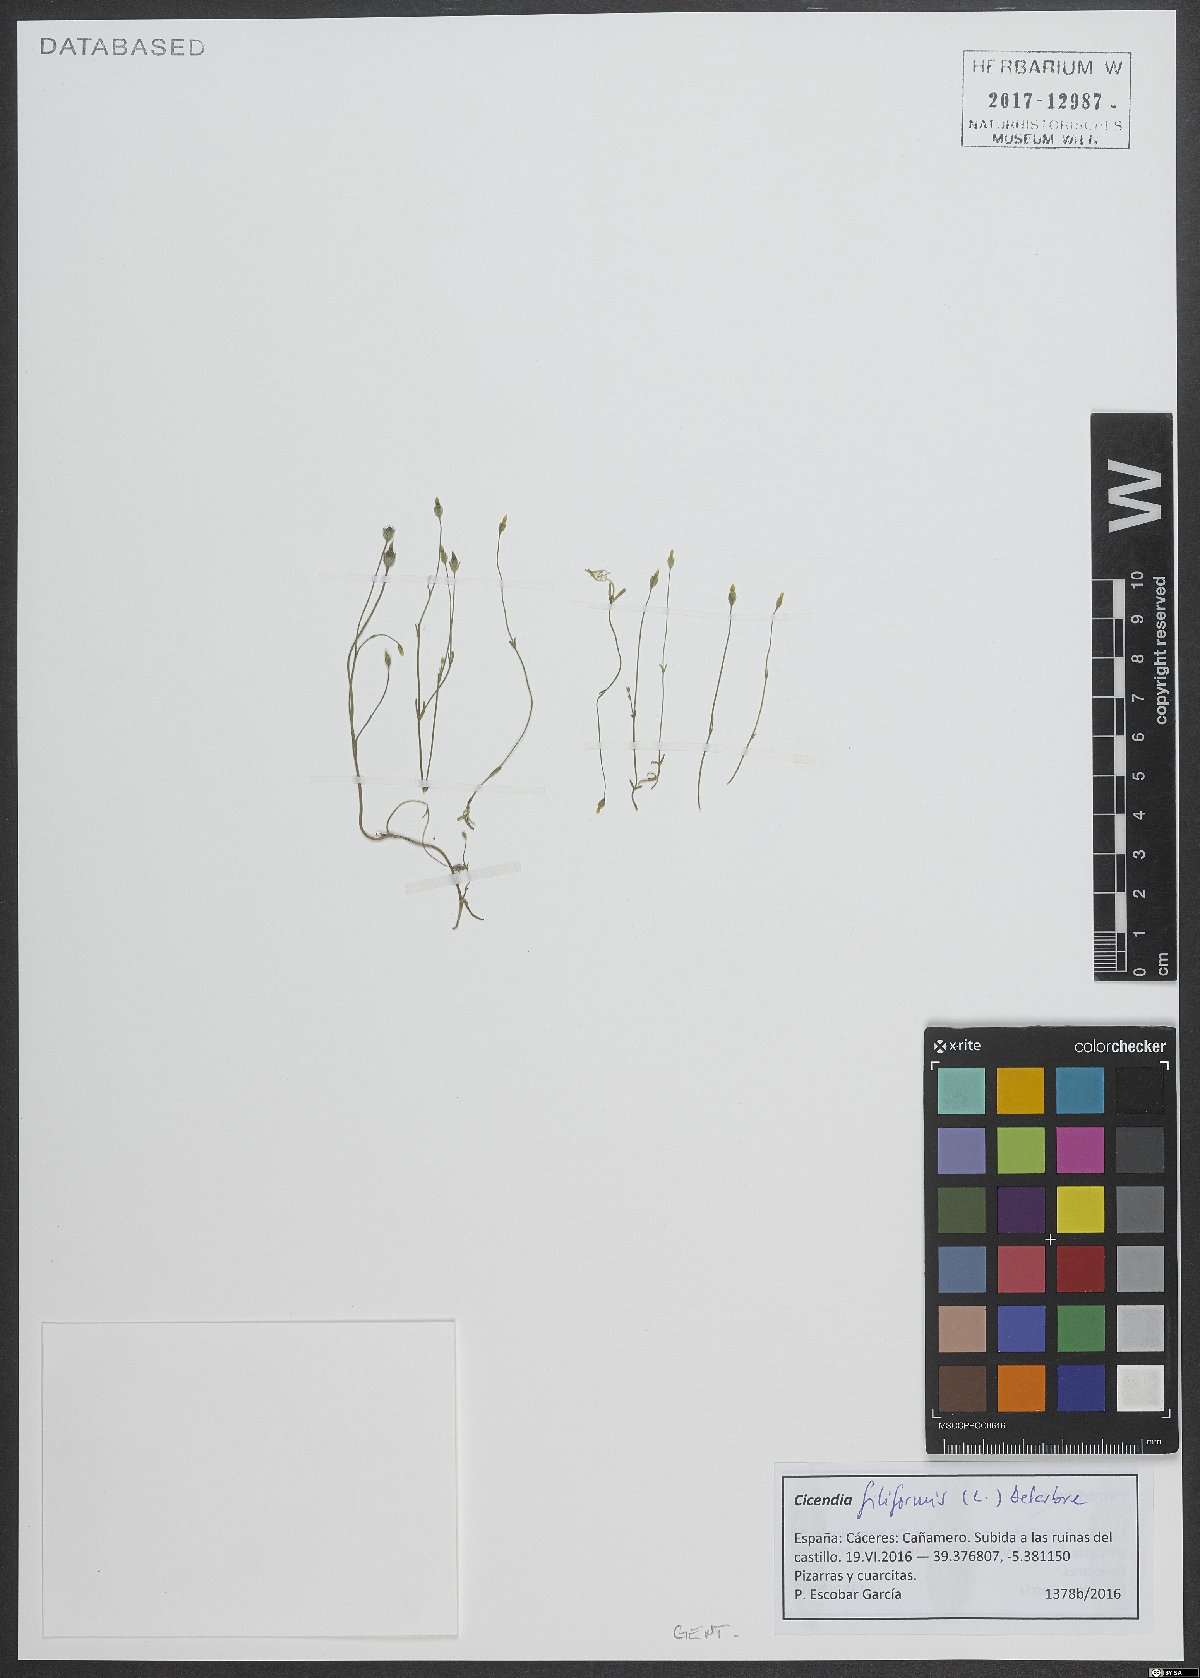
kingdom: Plantae
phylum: Tracheophyta
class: Magnoliopsida
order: Gentianales
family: Gentianaceae
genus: Cicendia
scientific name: Cicendia filiformis
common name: Yellow centaury
